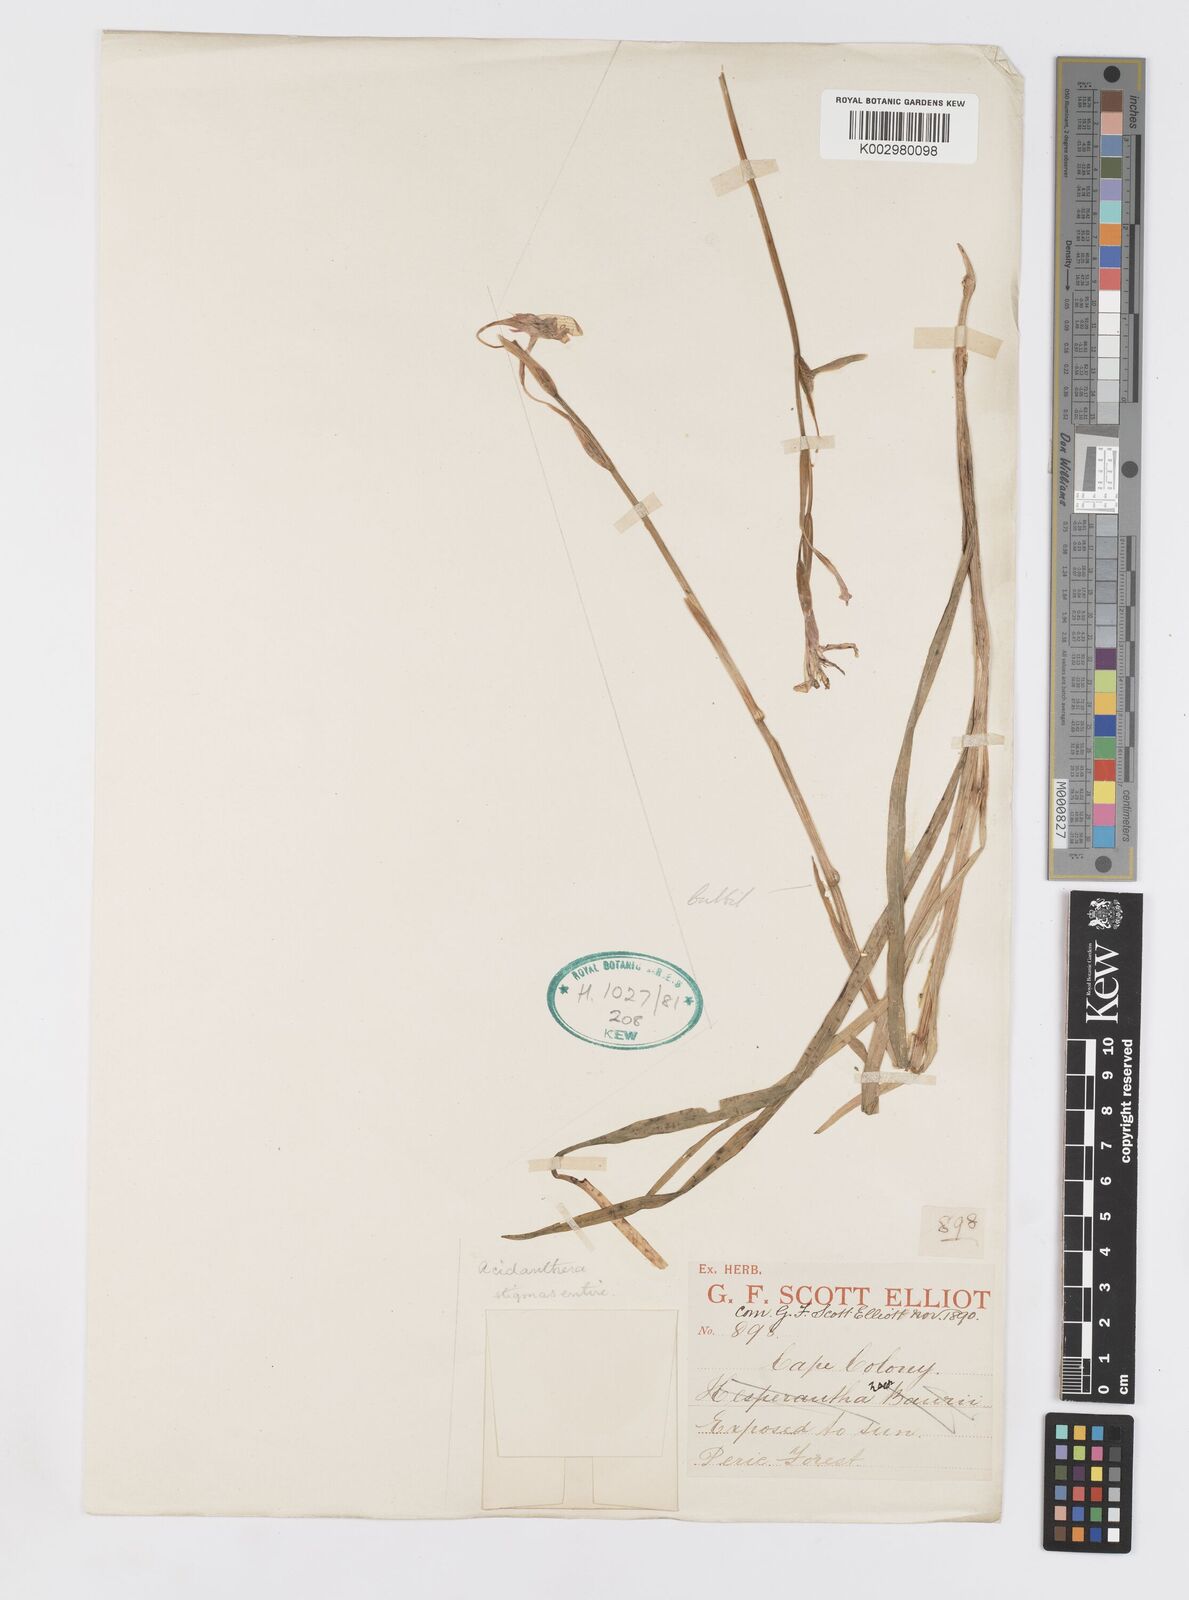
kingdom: Plantae
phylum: Tracheophyta
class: Liliopsida
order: Asparagales
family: Iridaceae
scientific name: Iridaceae
